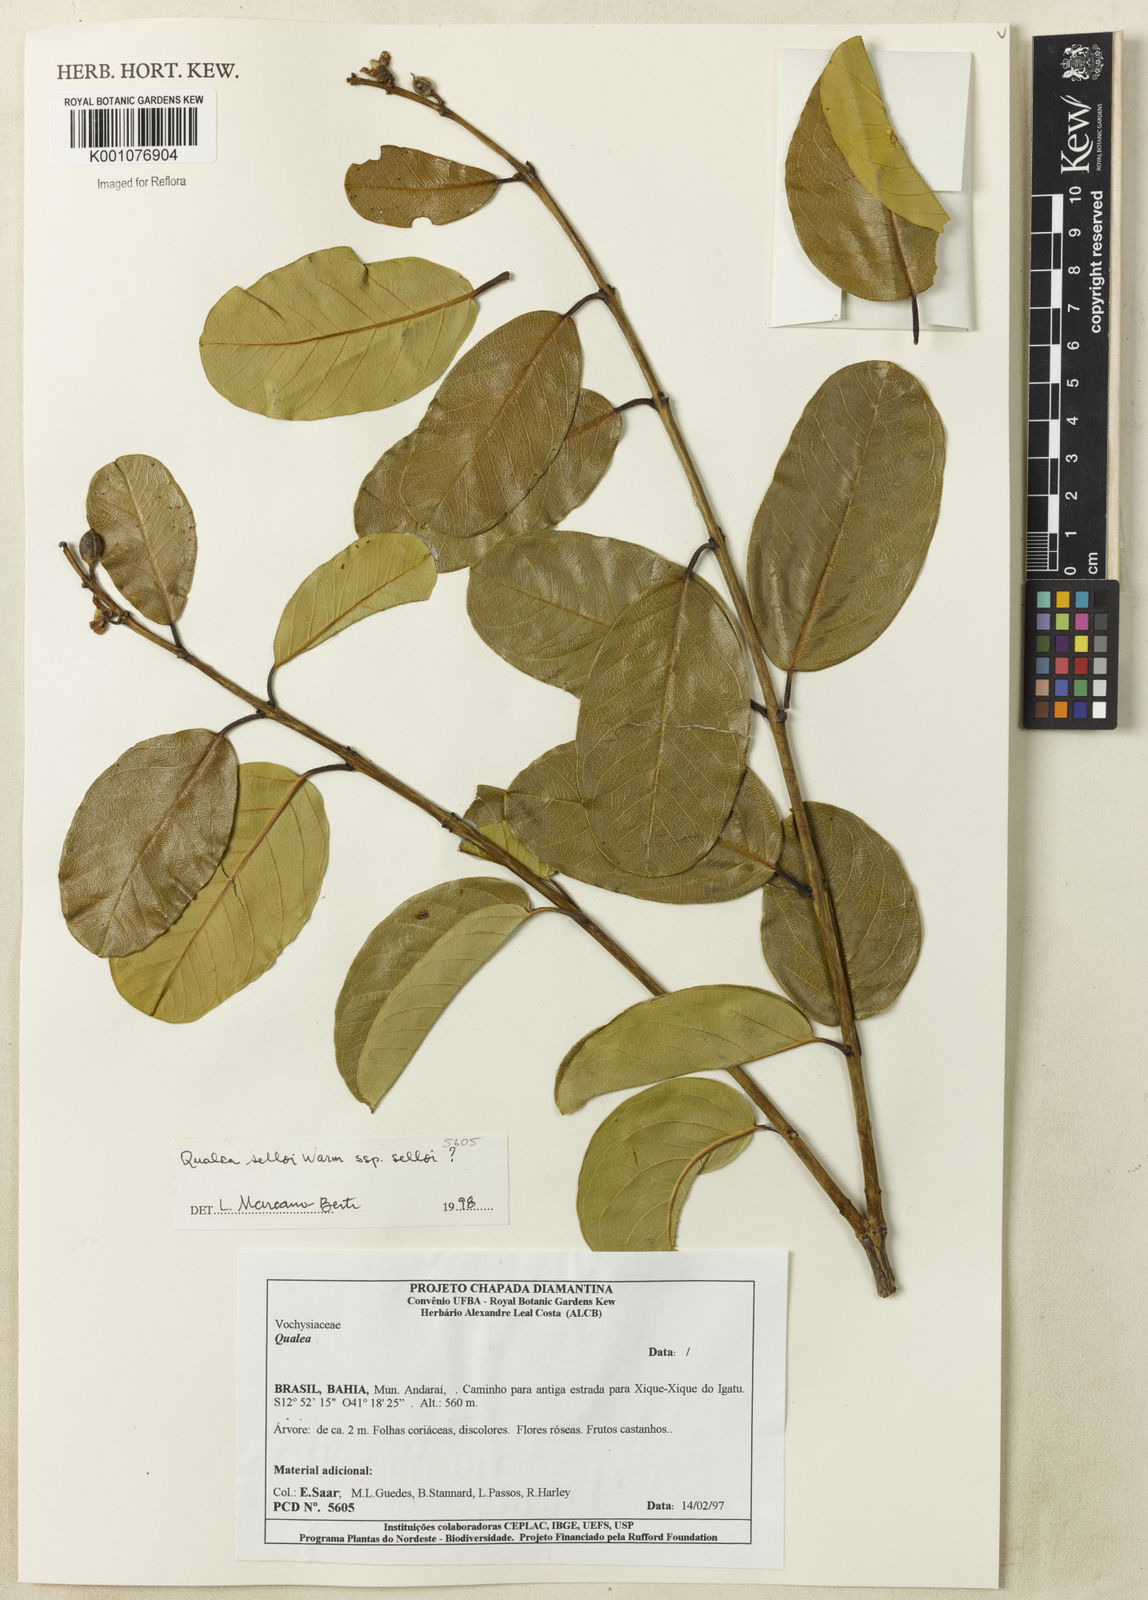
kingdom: Plantae
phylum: Tracheophyta
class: Magnoliopsida
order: Myrtales
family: Vochysiaceae
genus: Qualea
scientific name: Qualea selloi
